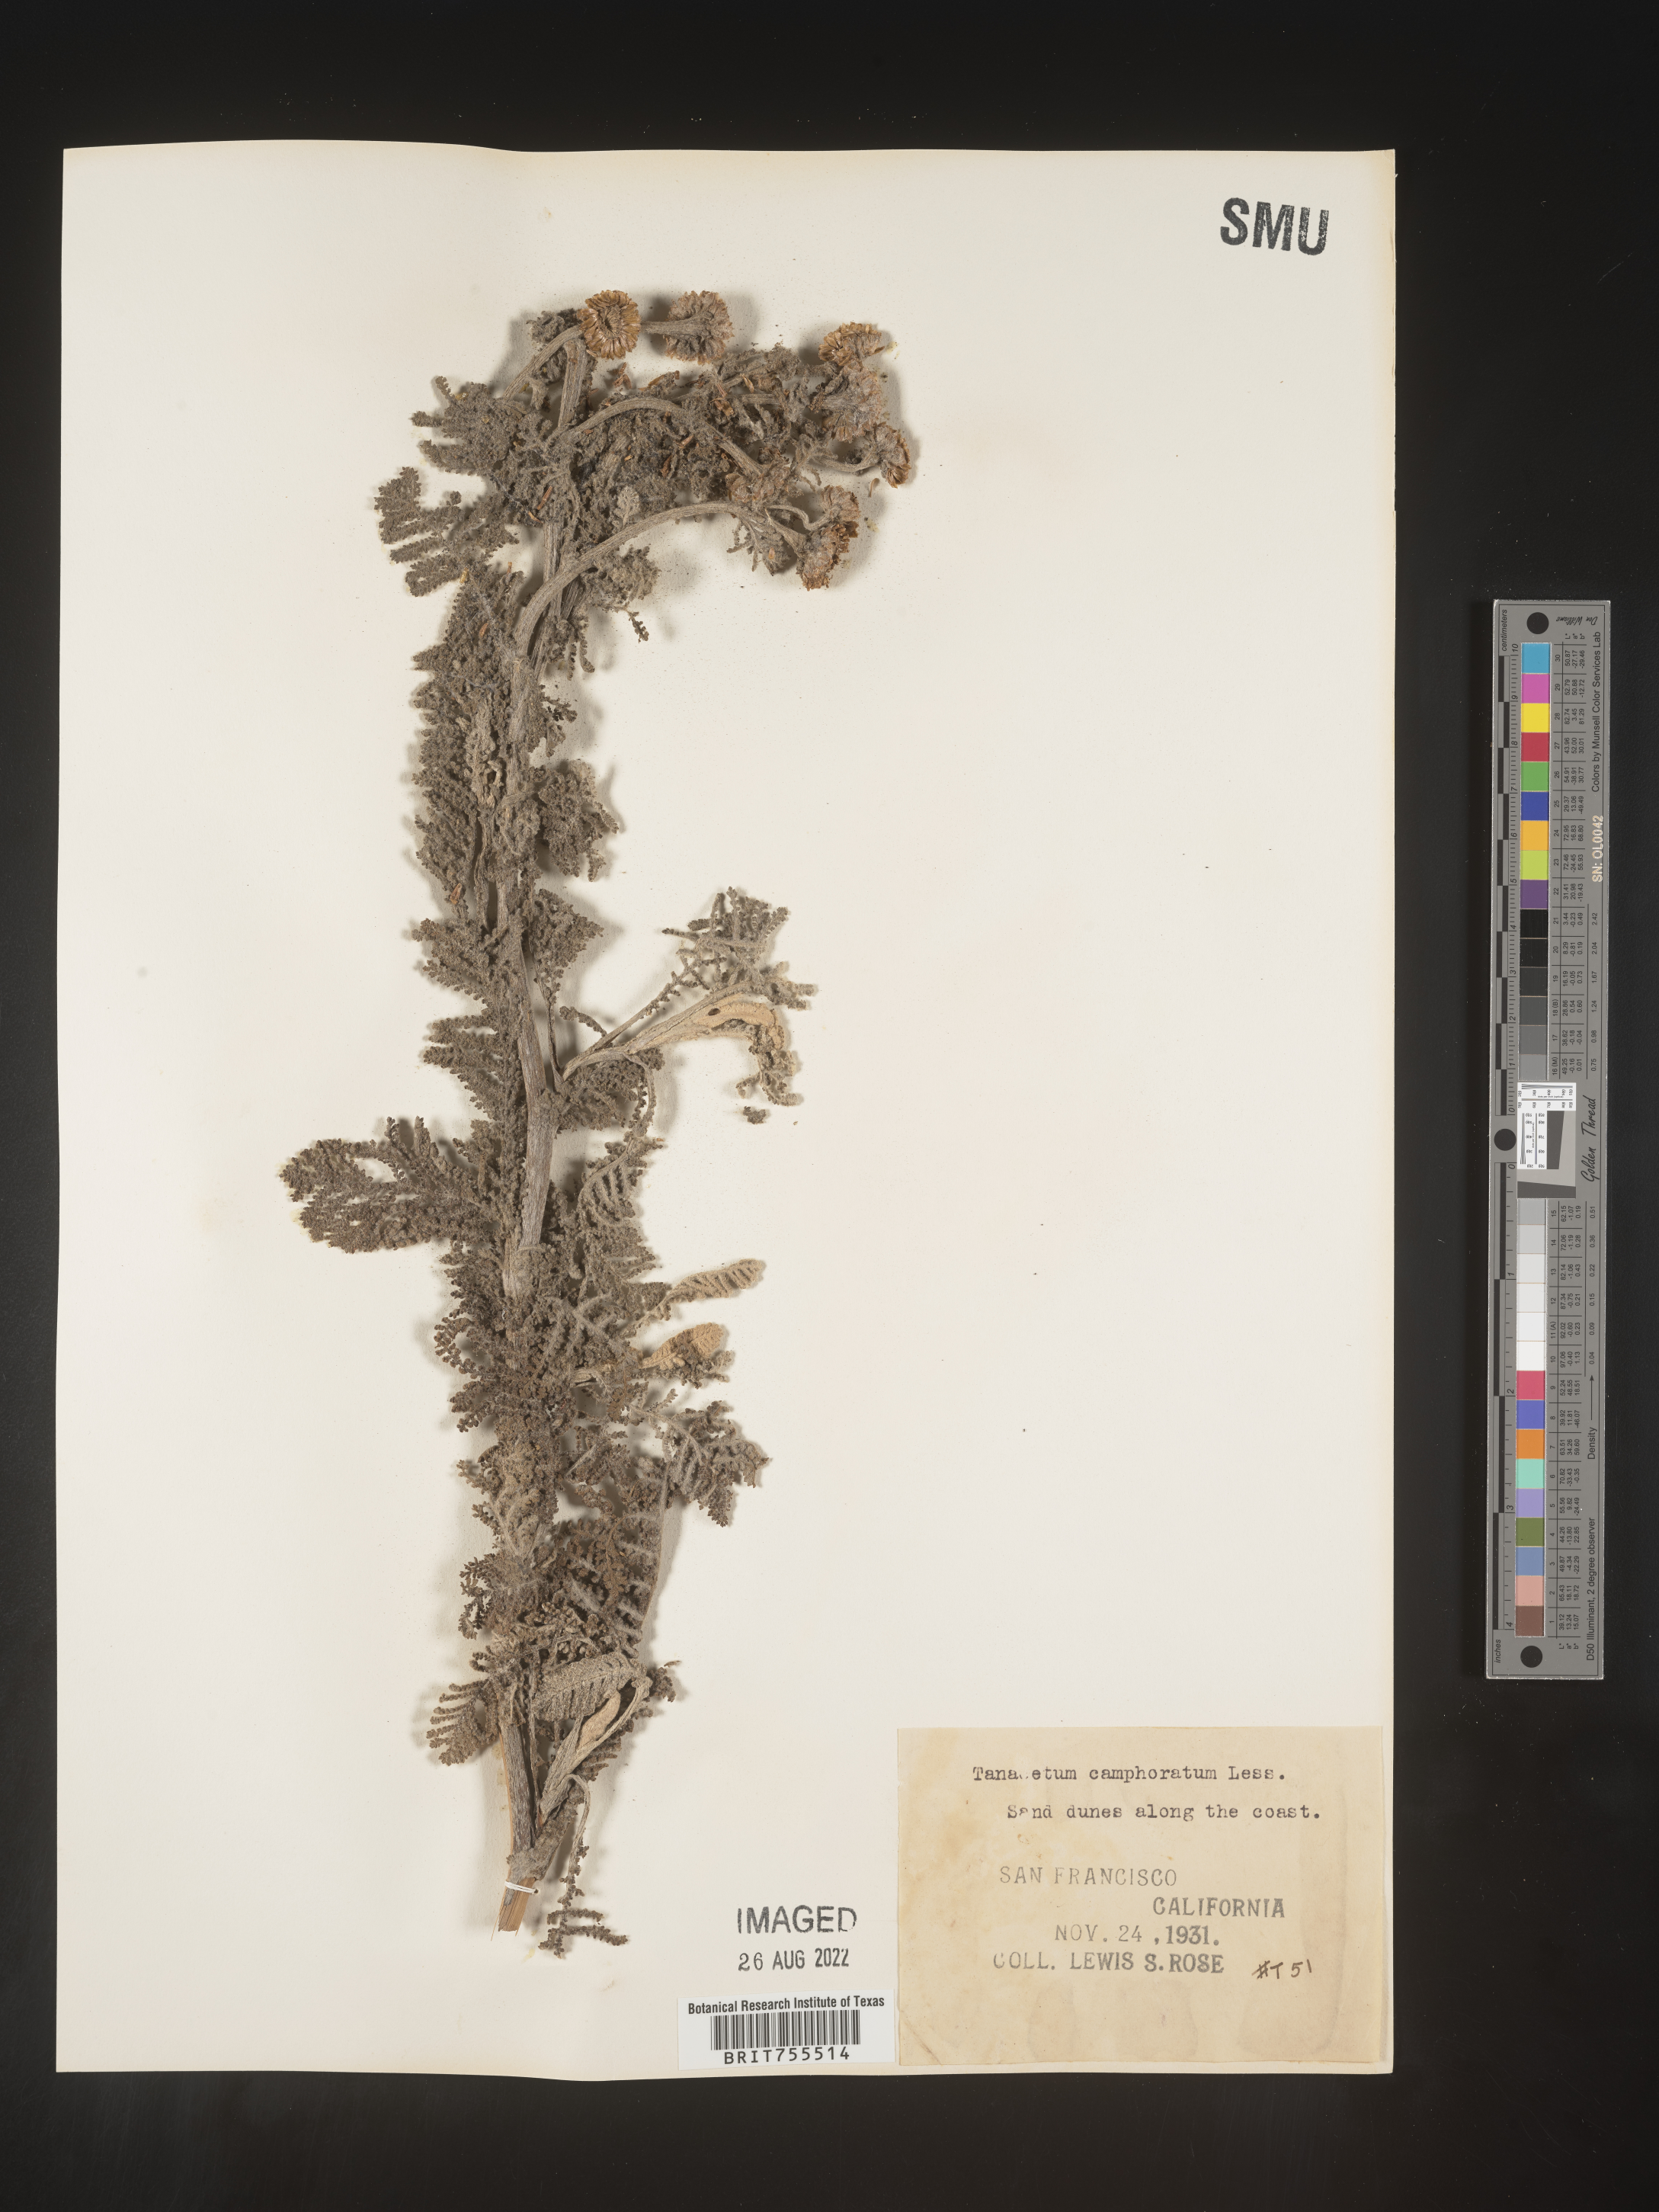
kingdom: Plantae
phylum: Tracheophyta
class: Magnoliopsida
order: Asterales
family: Asteraceae
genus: Tanacetum
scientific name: Tanacetum bipinnatum
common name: Dwarf tansy
